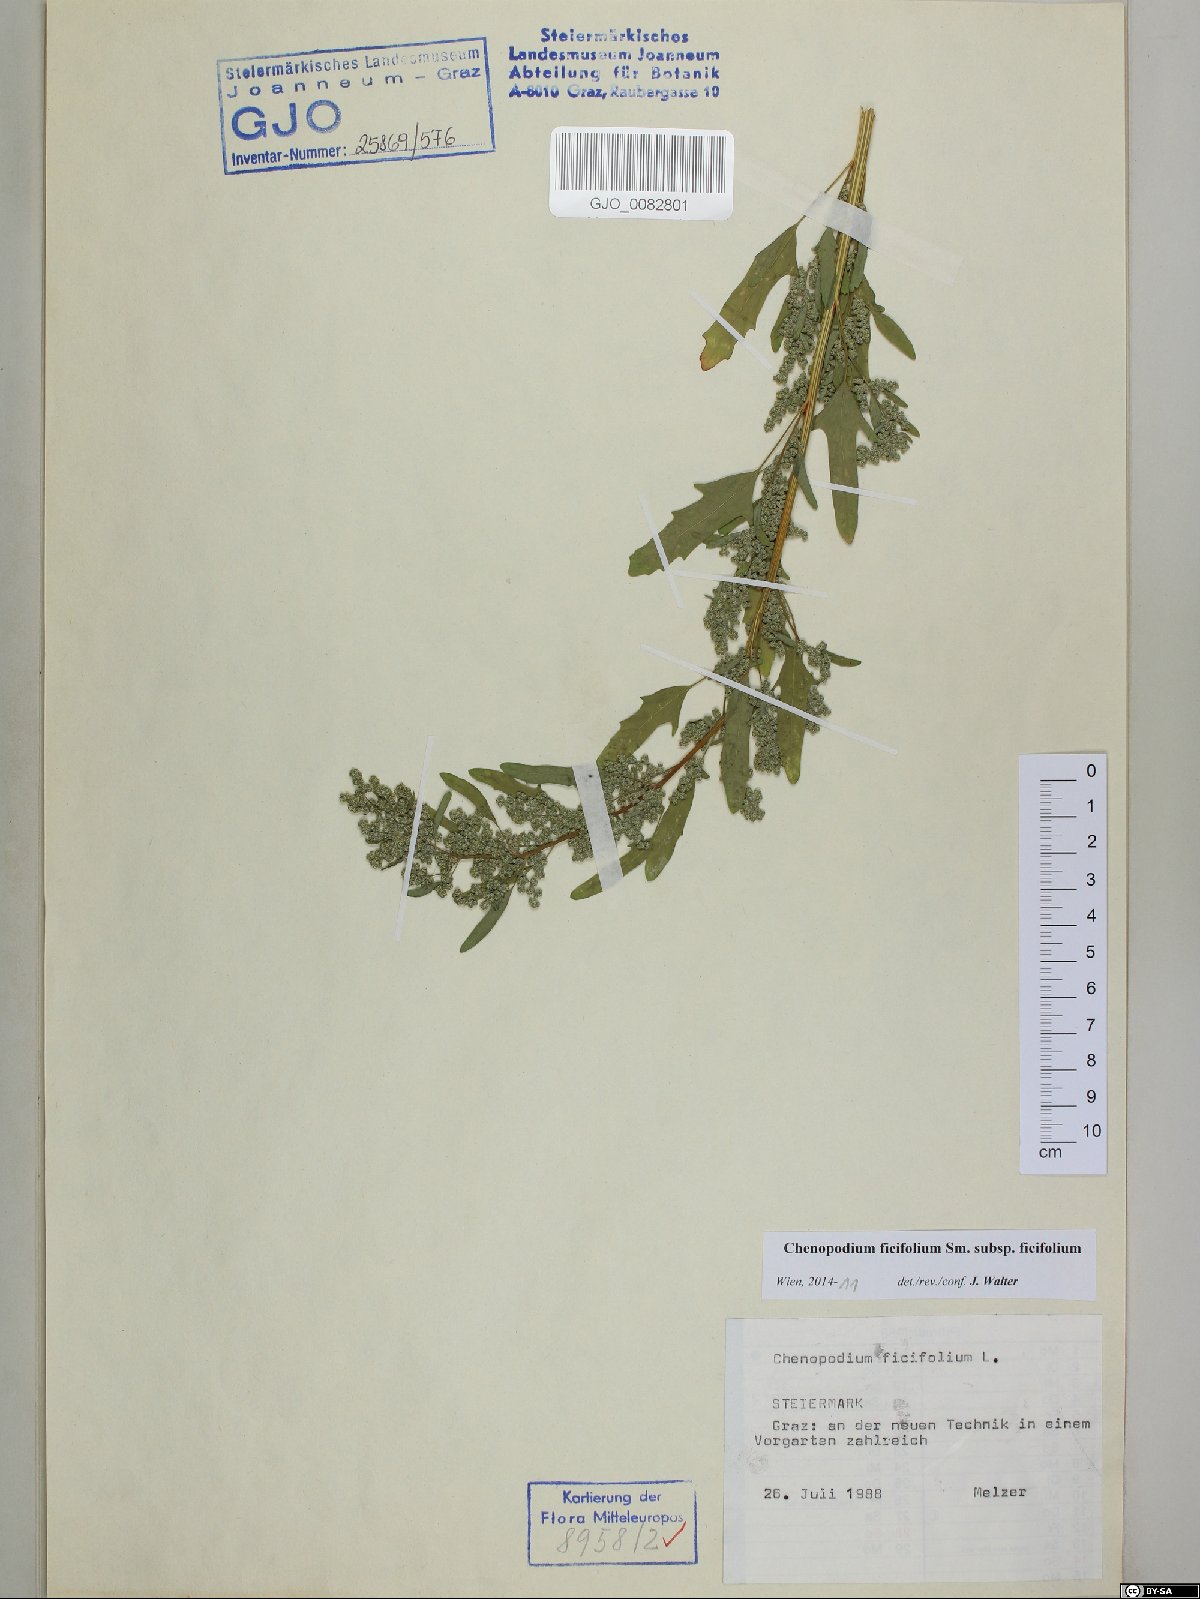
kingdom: Plantae
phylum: Tracheophyta
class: Magnoliopsida
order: Caryophyllales
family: Amaranthaceae
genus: Chenopodium
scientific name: Chenopodium ficifolium
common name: Fig-leaved goosefoot
